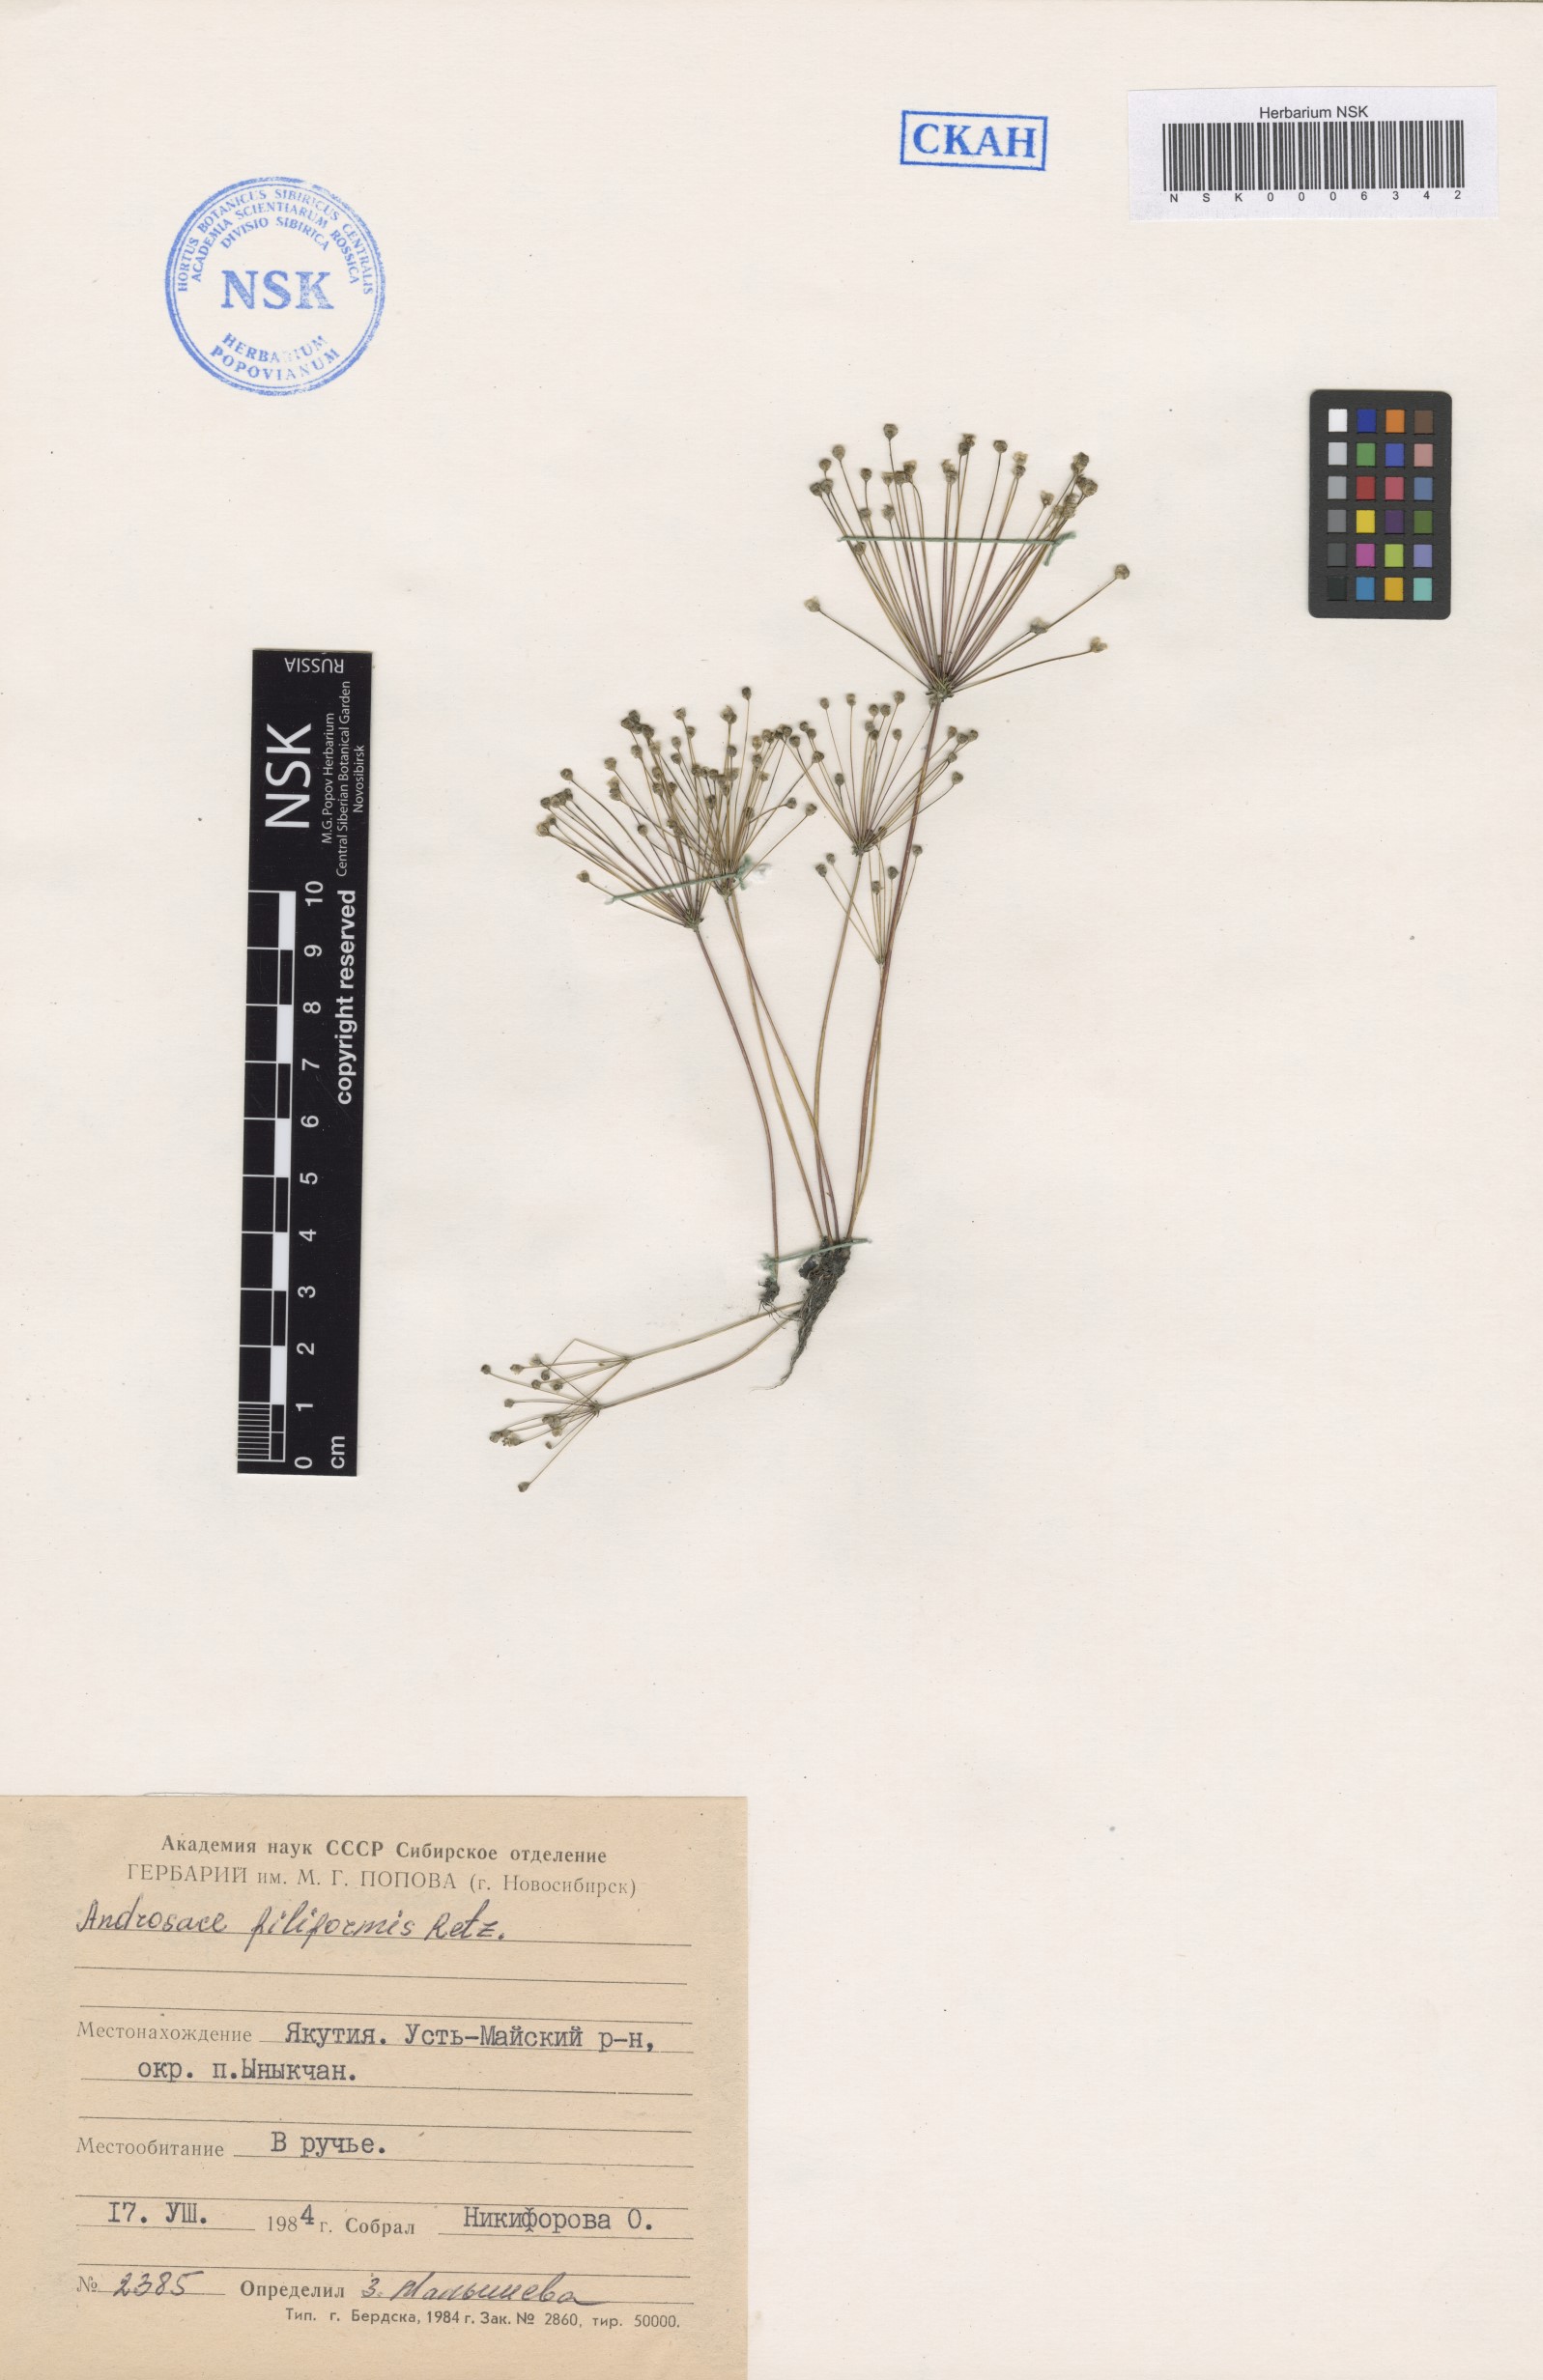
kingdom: Plantae
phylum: Tracheophyta
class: Magnoliopsida
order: Ericales
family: Primulaceae
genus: Androsace
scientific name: Androsace filiformis
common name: Filiform rock jasmine
